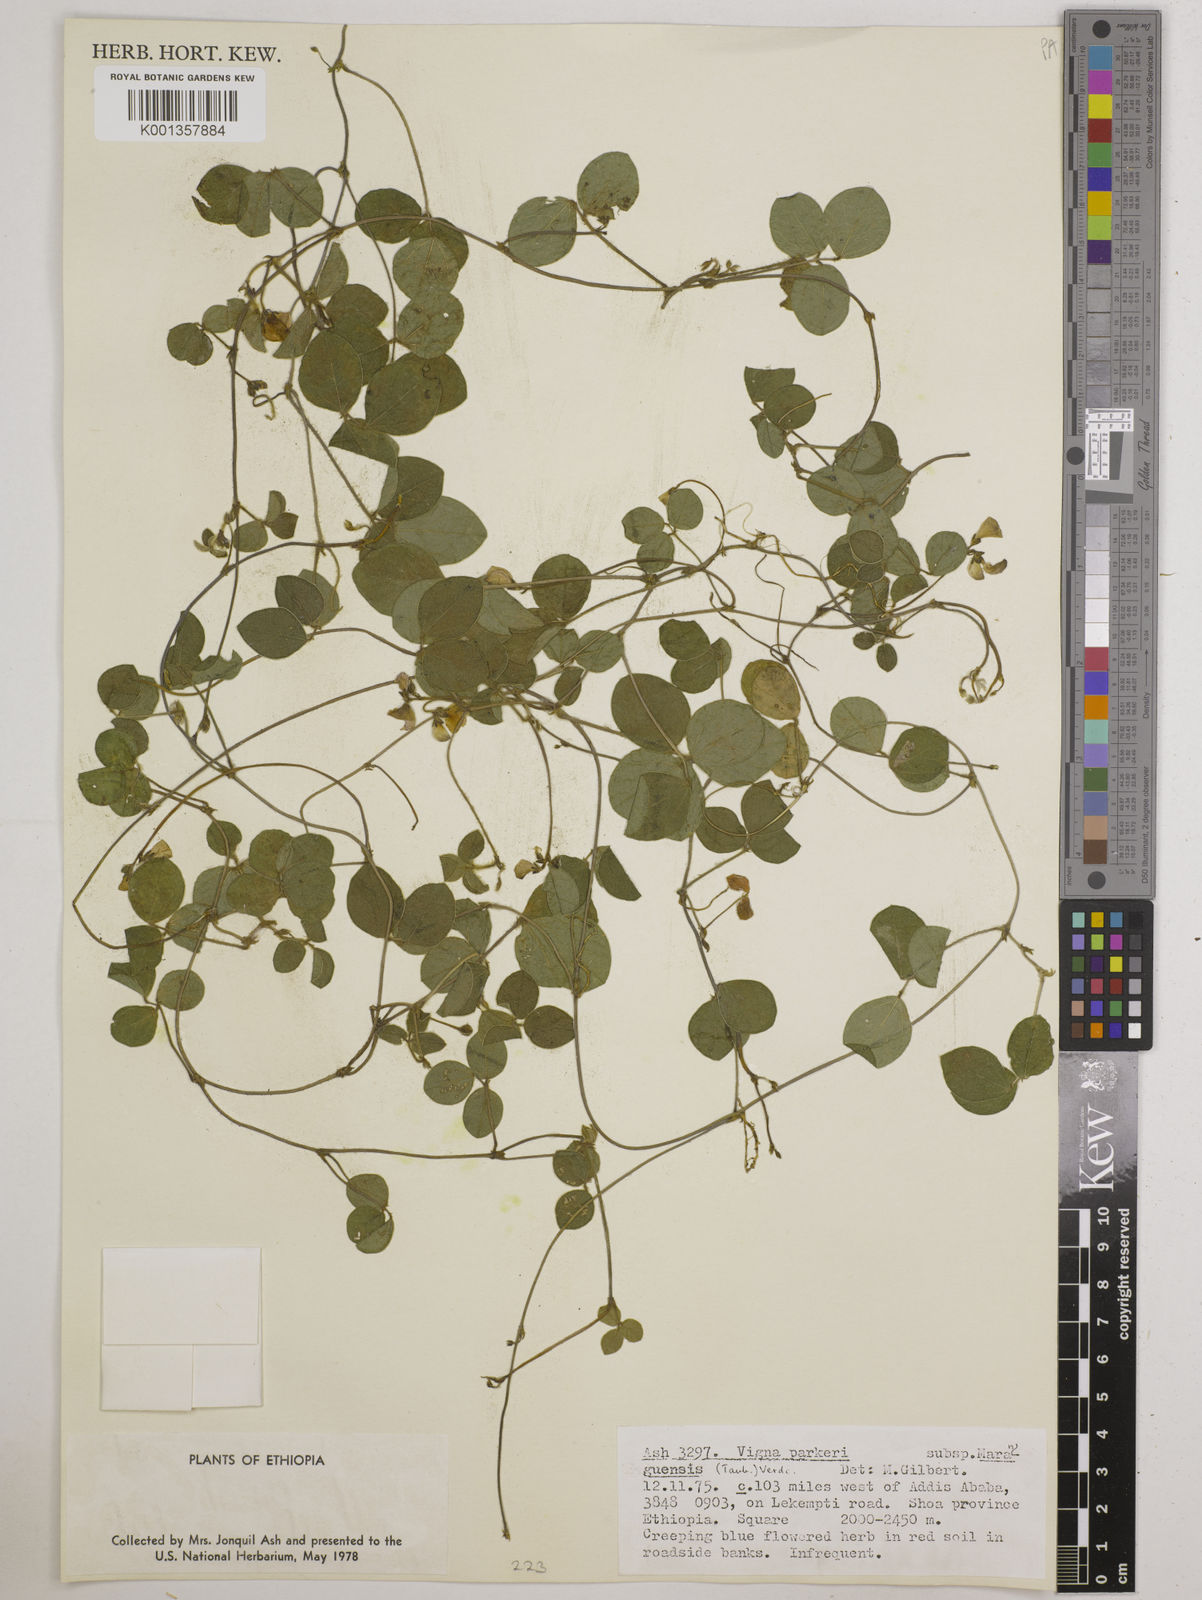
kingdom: Plantae
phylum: Tracheophyta
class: Magnoliopsida
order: Fabales
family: Fabaceae
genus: Vigna
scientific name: Vigna
